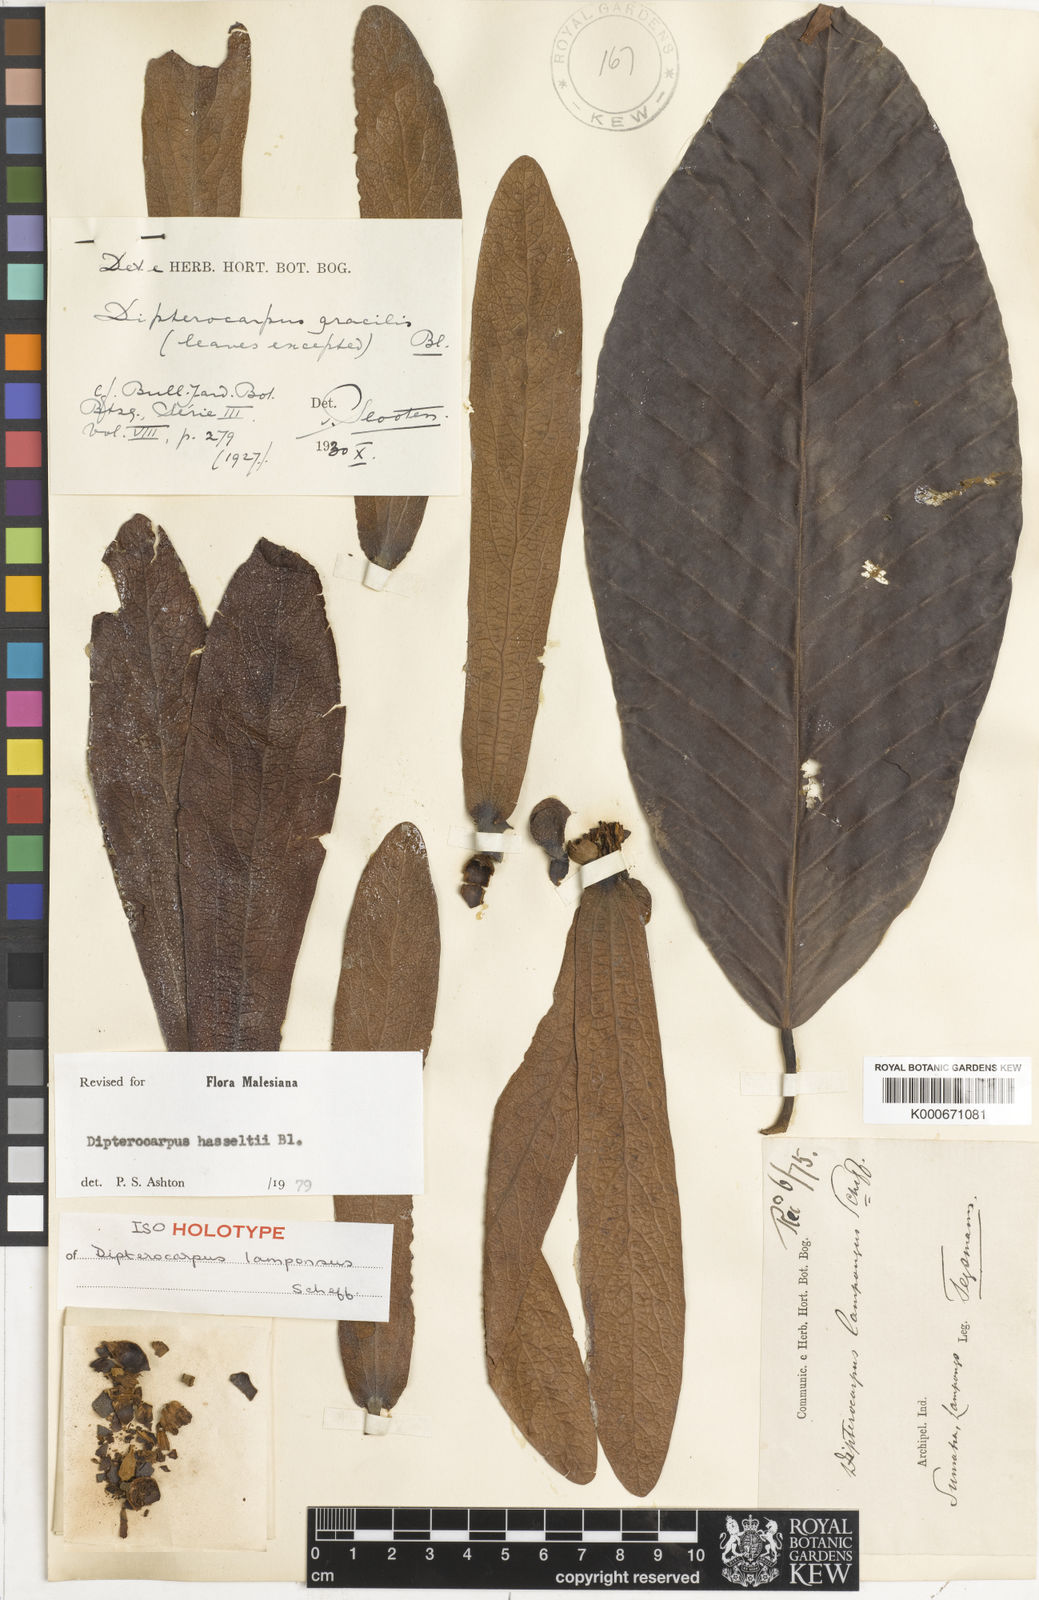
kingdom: Plantae
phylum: Tracheophyta
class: Magnoliopsida
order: Malvales
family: Dipterocarpaceae
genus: Dipterocarpus
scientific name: Dipterocarpus hasseltii
